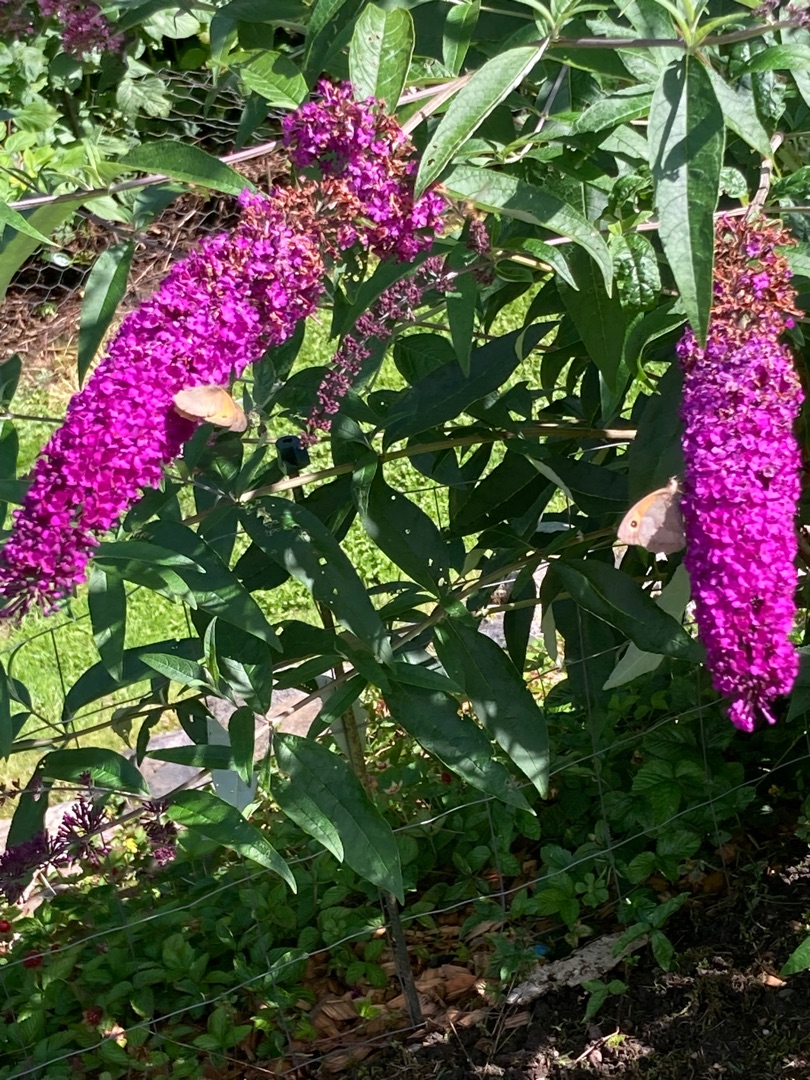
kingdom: Animalia
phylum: Arthropoda
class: Insecta
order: Lepidoptera
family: Nymphalidae
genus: Maniola
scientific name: Maniola jurtina
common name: Græsrandøje
